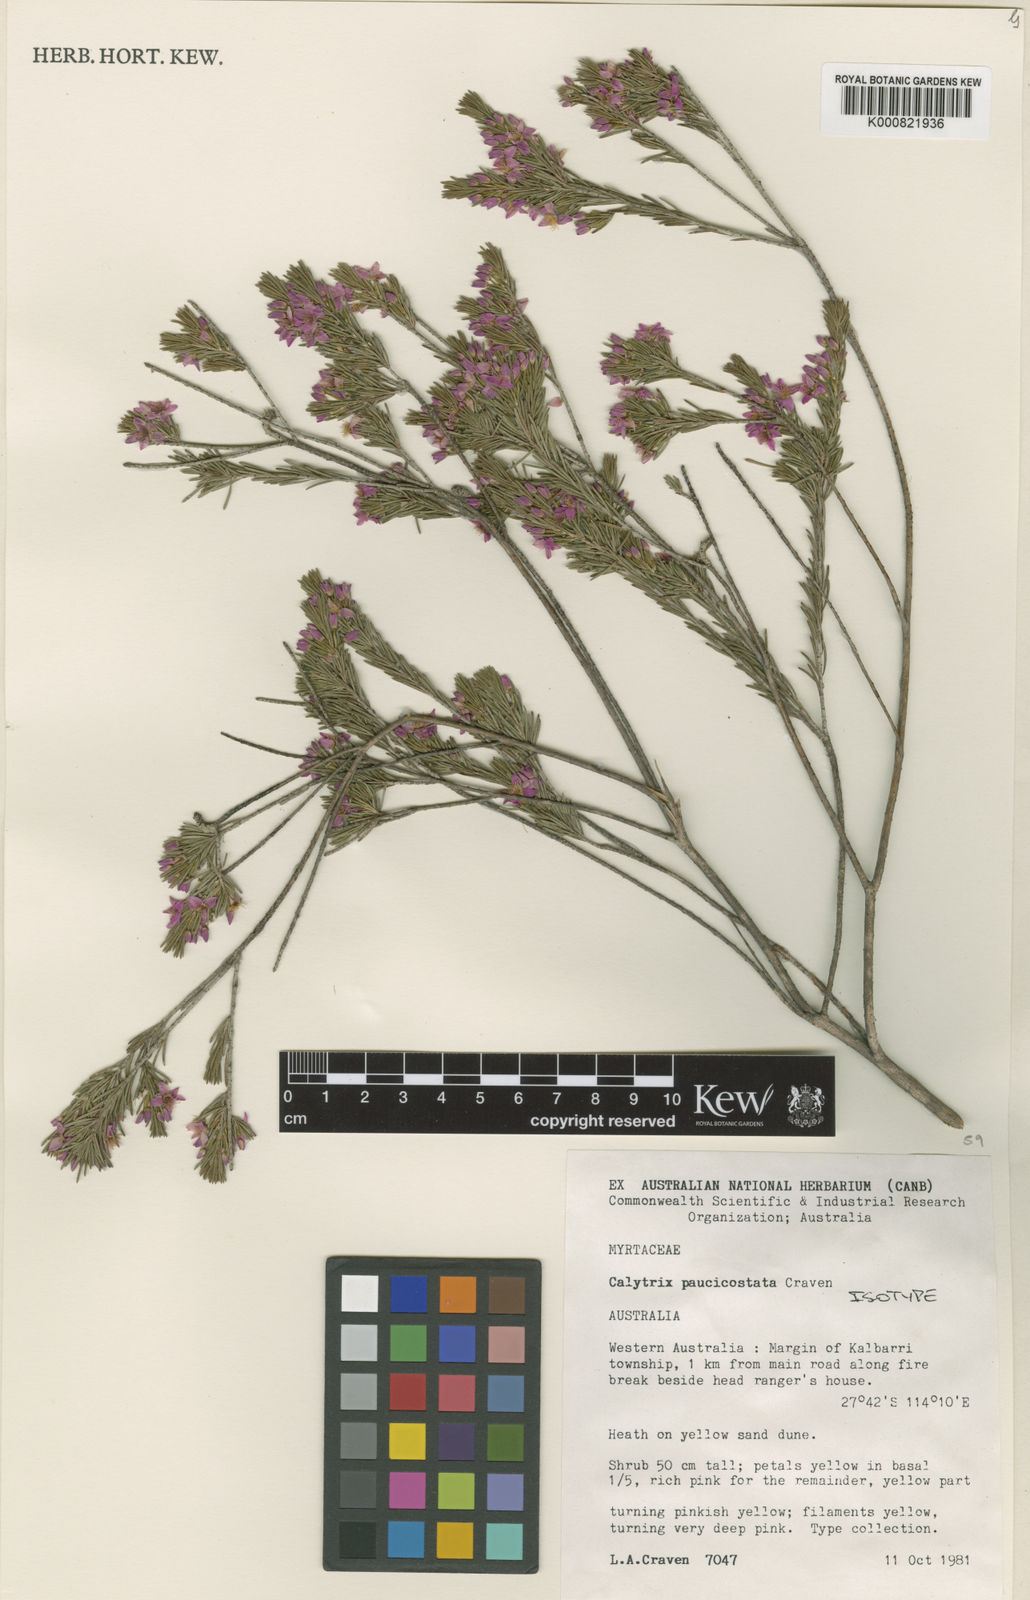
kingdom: Plantae
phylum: Tracheophyta
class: Magnoliopsida
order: Myrtales
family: Myrtaceae
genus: Calytrix
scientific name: Calytrix paucicostata
